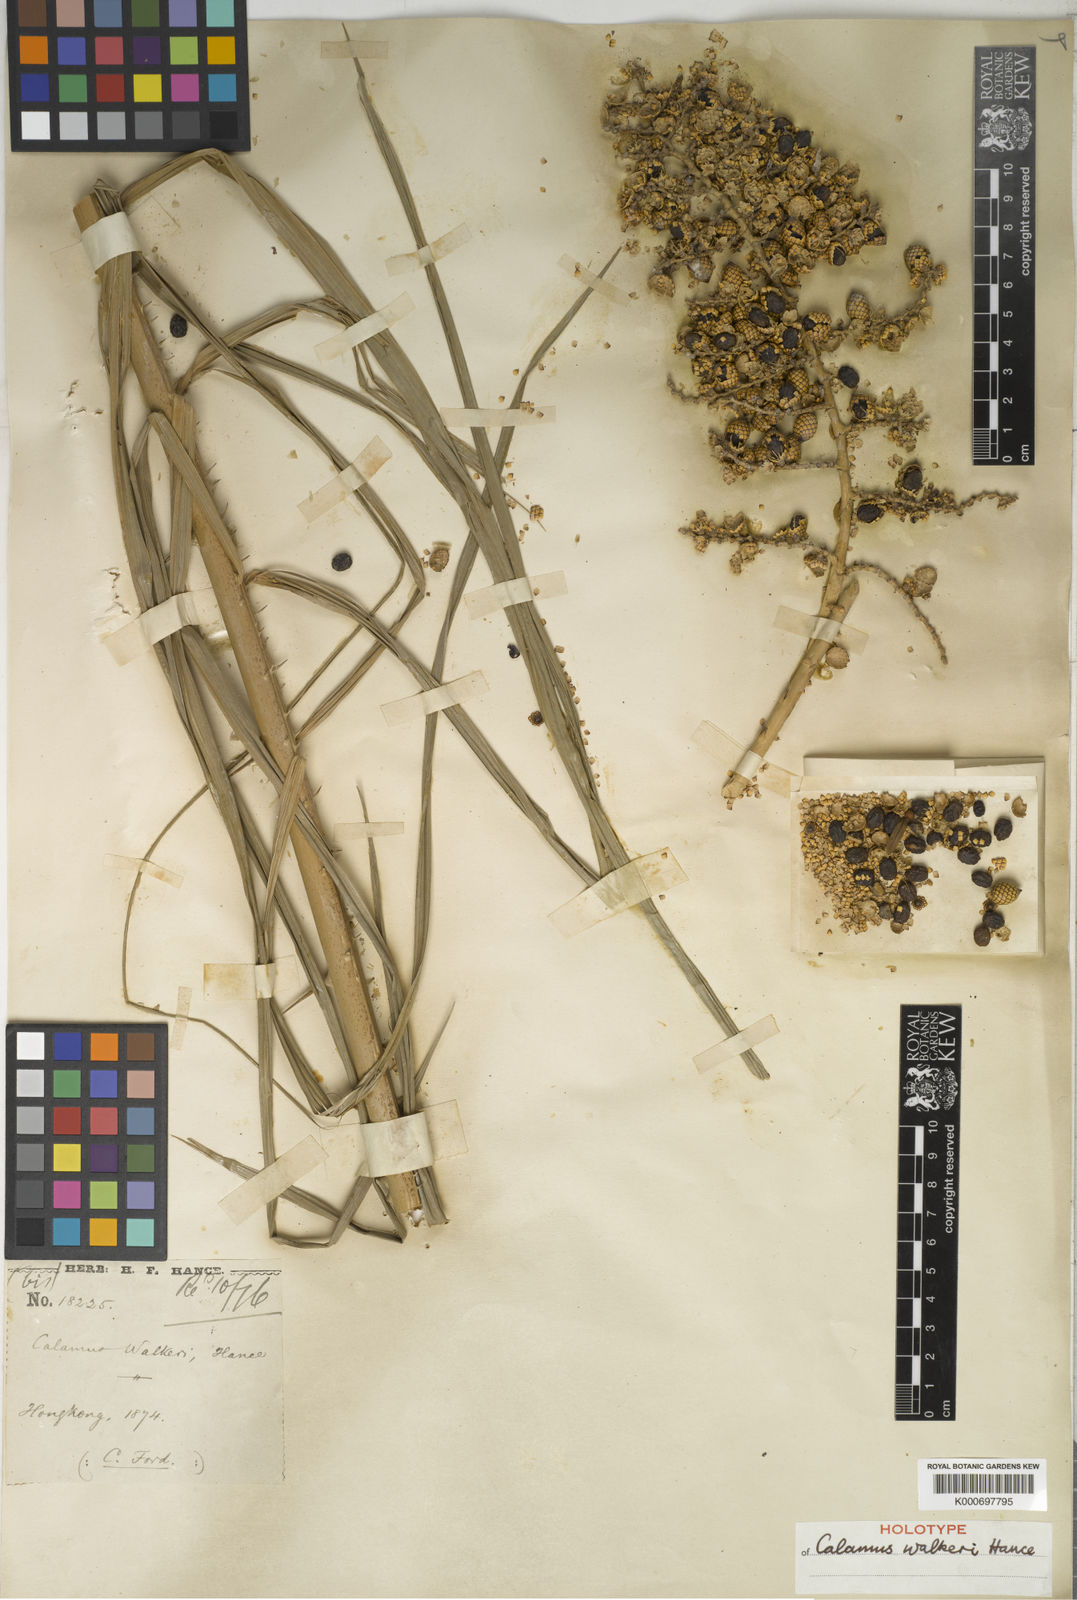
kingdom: Plantae
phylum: Tracheophyta
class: Liliopsida
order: Arecales
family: Arecaceae
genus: Calamus
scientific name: Calamus walkeri
